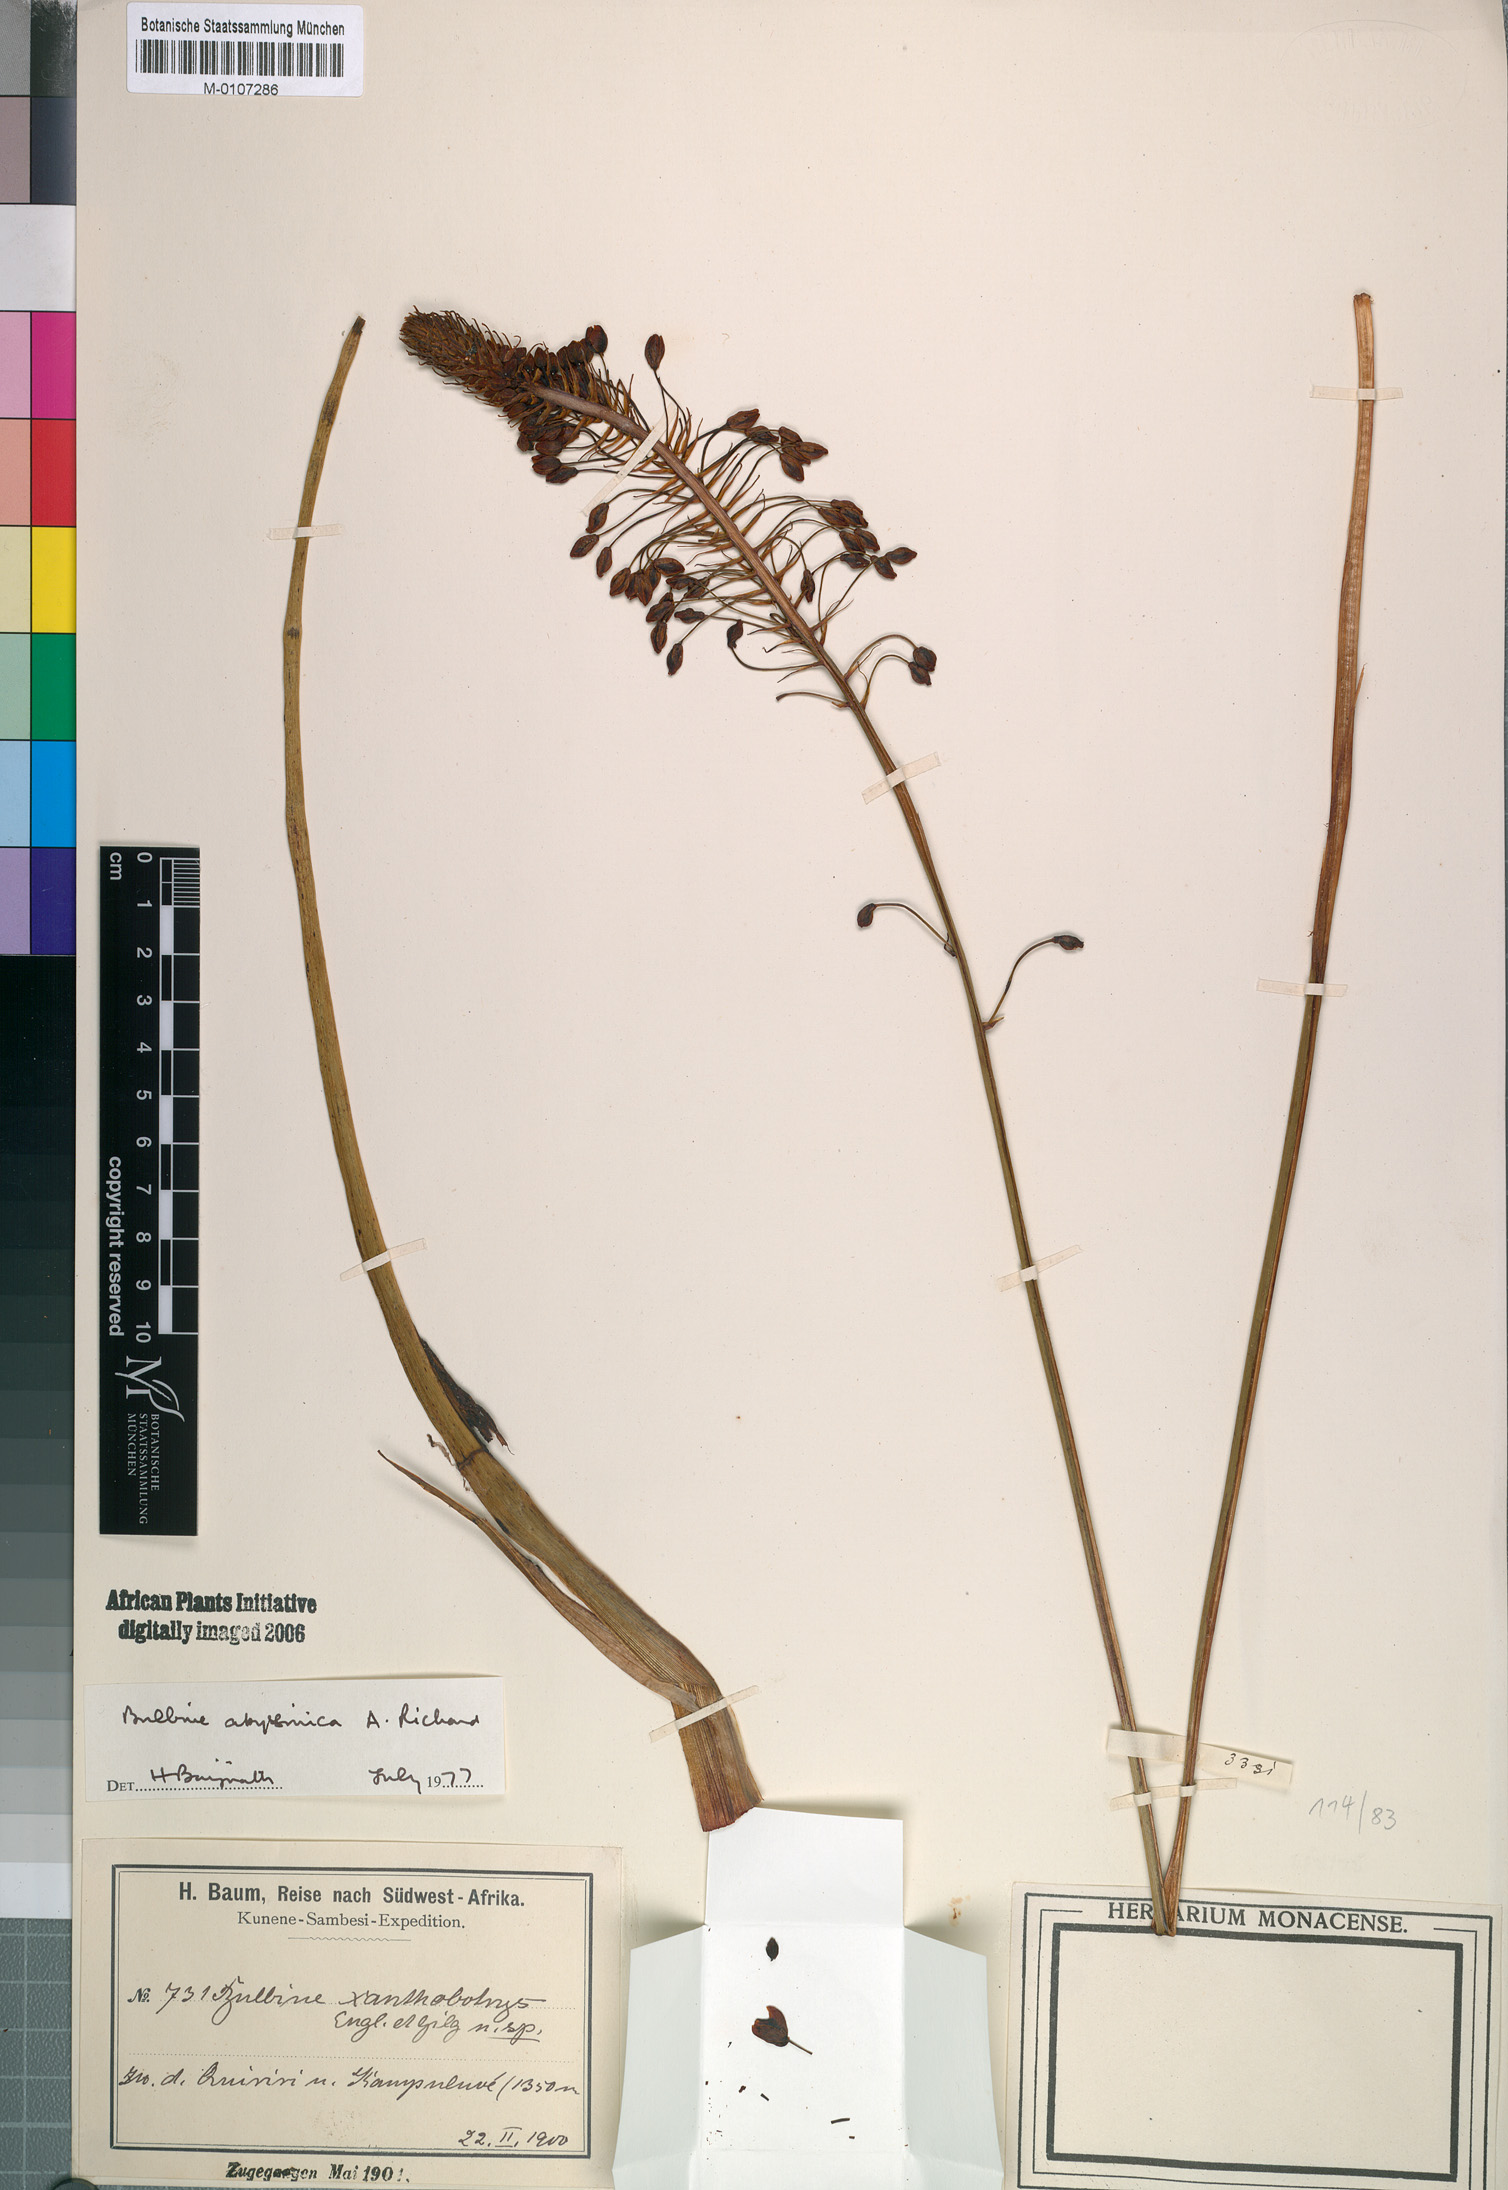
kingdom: Plantae
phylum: Tracheophyta
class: Liliopsida
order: Asparagales
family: Asphodelaceae
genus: Bulbine
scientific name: Bulbine abyssinica
